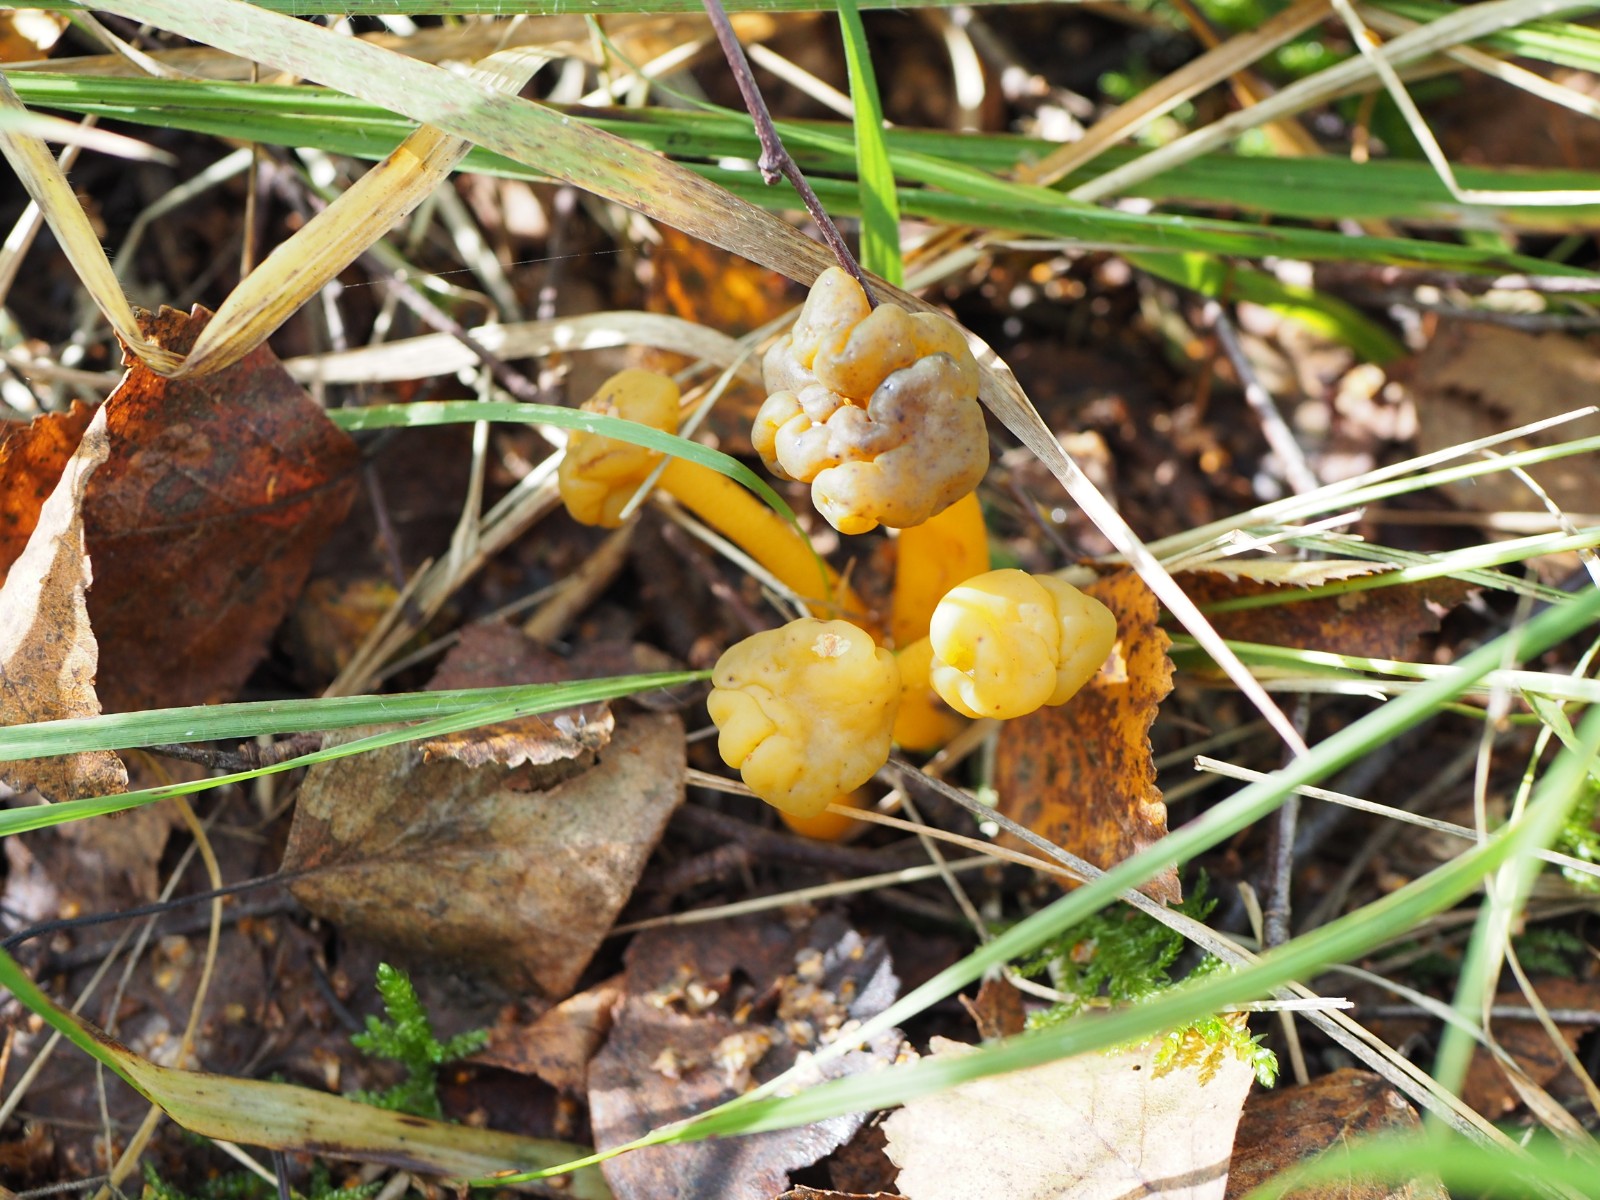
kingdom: Fungi
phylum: Ascomycota
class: Leotiomycetes
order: Leotiales
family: Leotiaceae
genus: Leotia
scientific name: Leotia lubrica
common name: ravsvamp
